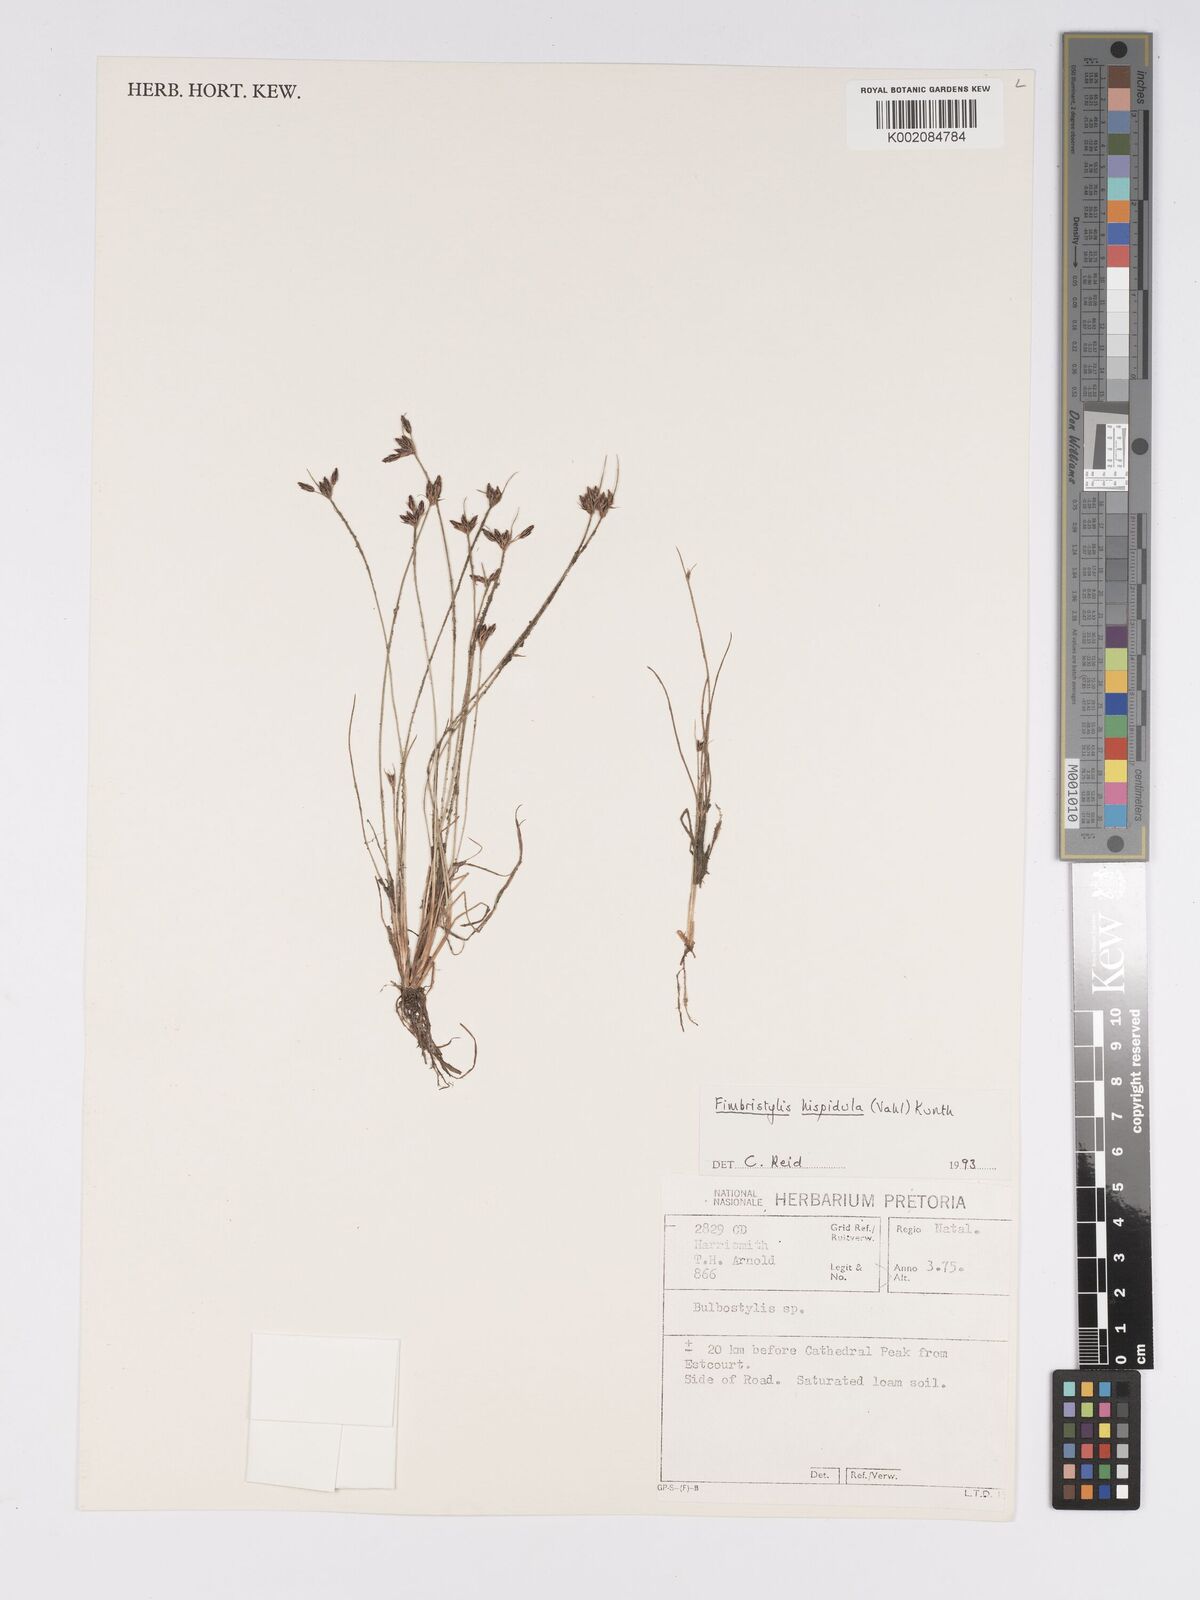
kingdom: Plantae
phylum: Tracheophyta
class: Liliopsida
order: Poales
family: Cyperaceae
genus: Bulbostylis
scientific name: Bulbostylis
